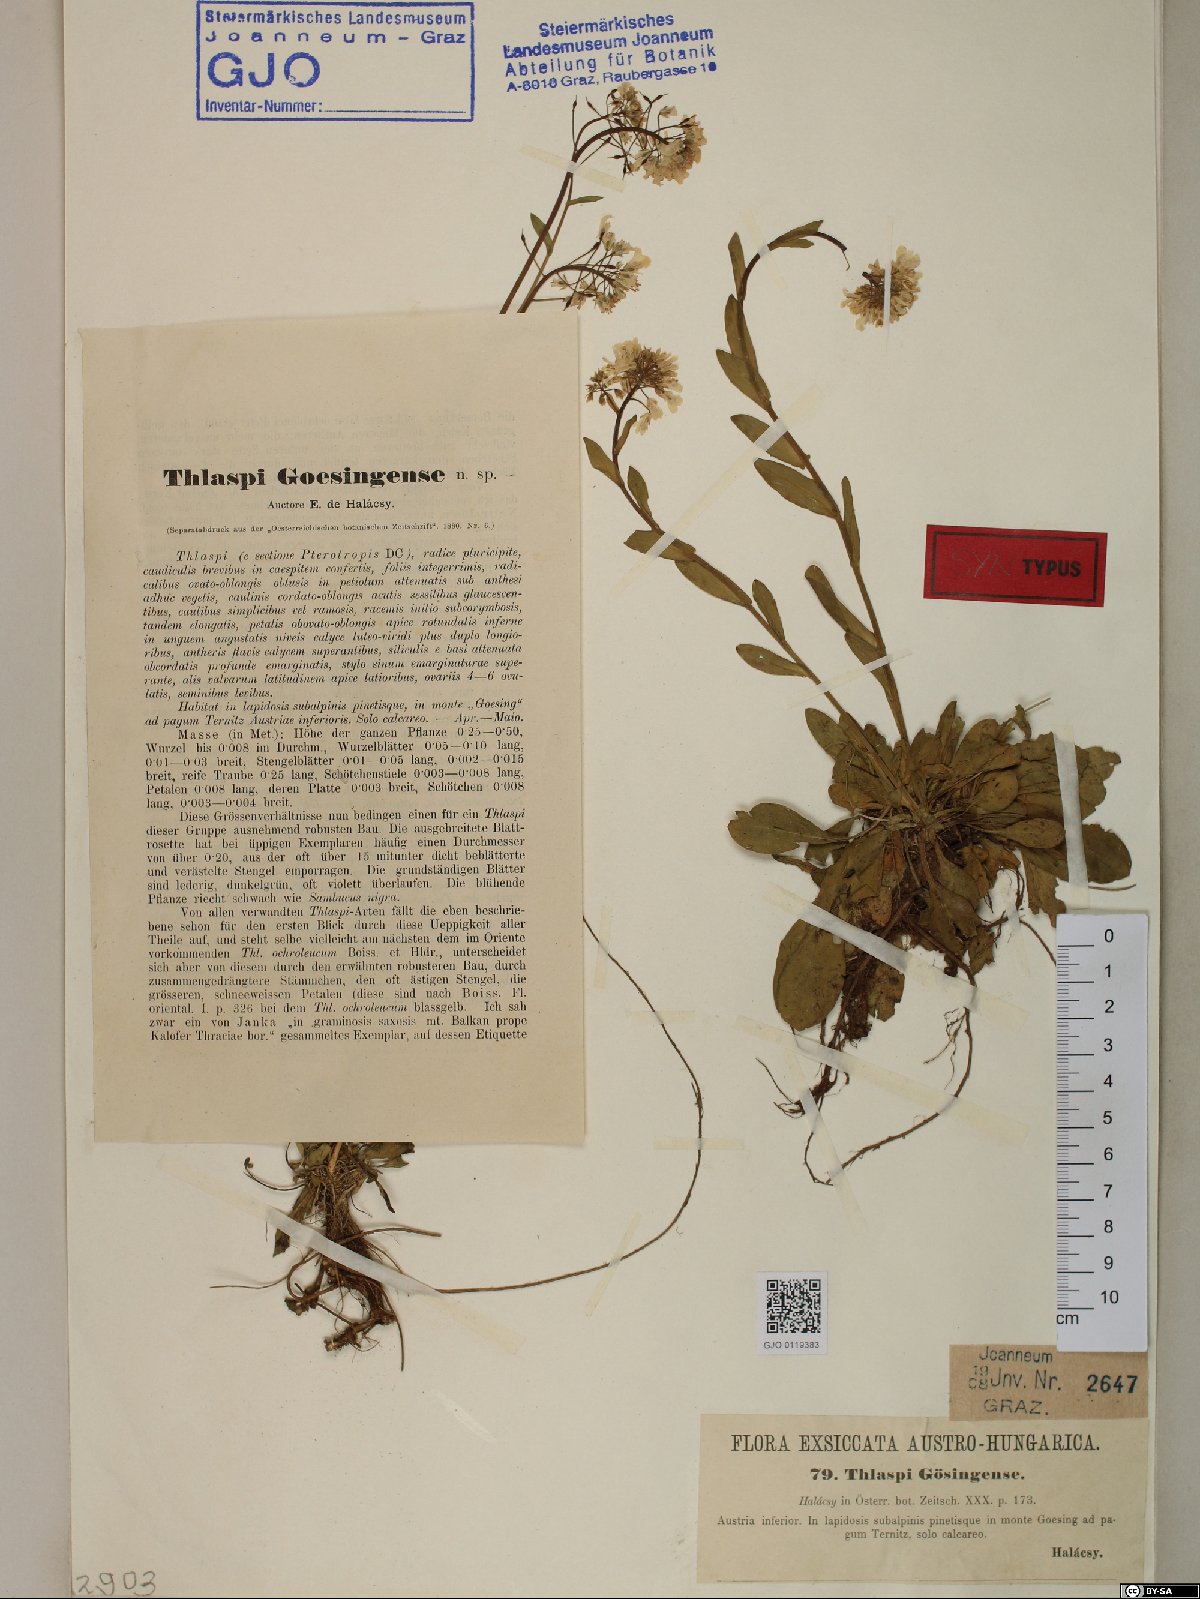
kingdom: Plantae
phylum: Tracheophyta
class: Magnoliopsida
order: Brassicales
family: Brassicaceae
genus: Noccaea
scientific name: Noccaea goesingensis
